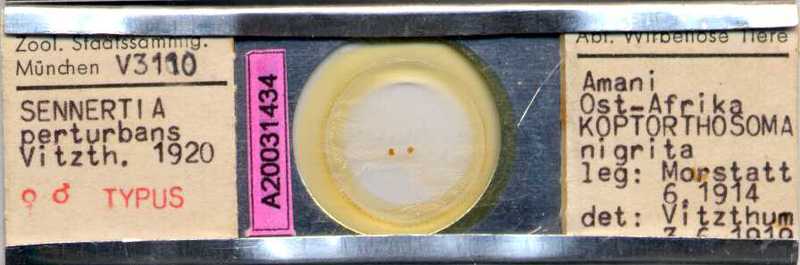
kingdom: Animalia
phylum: Arthropoda
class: Arachnida
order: Sarcoptiformes
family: Chaetodactylidae
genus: Sennertia
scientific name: Sennertia perturbans
